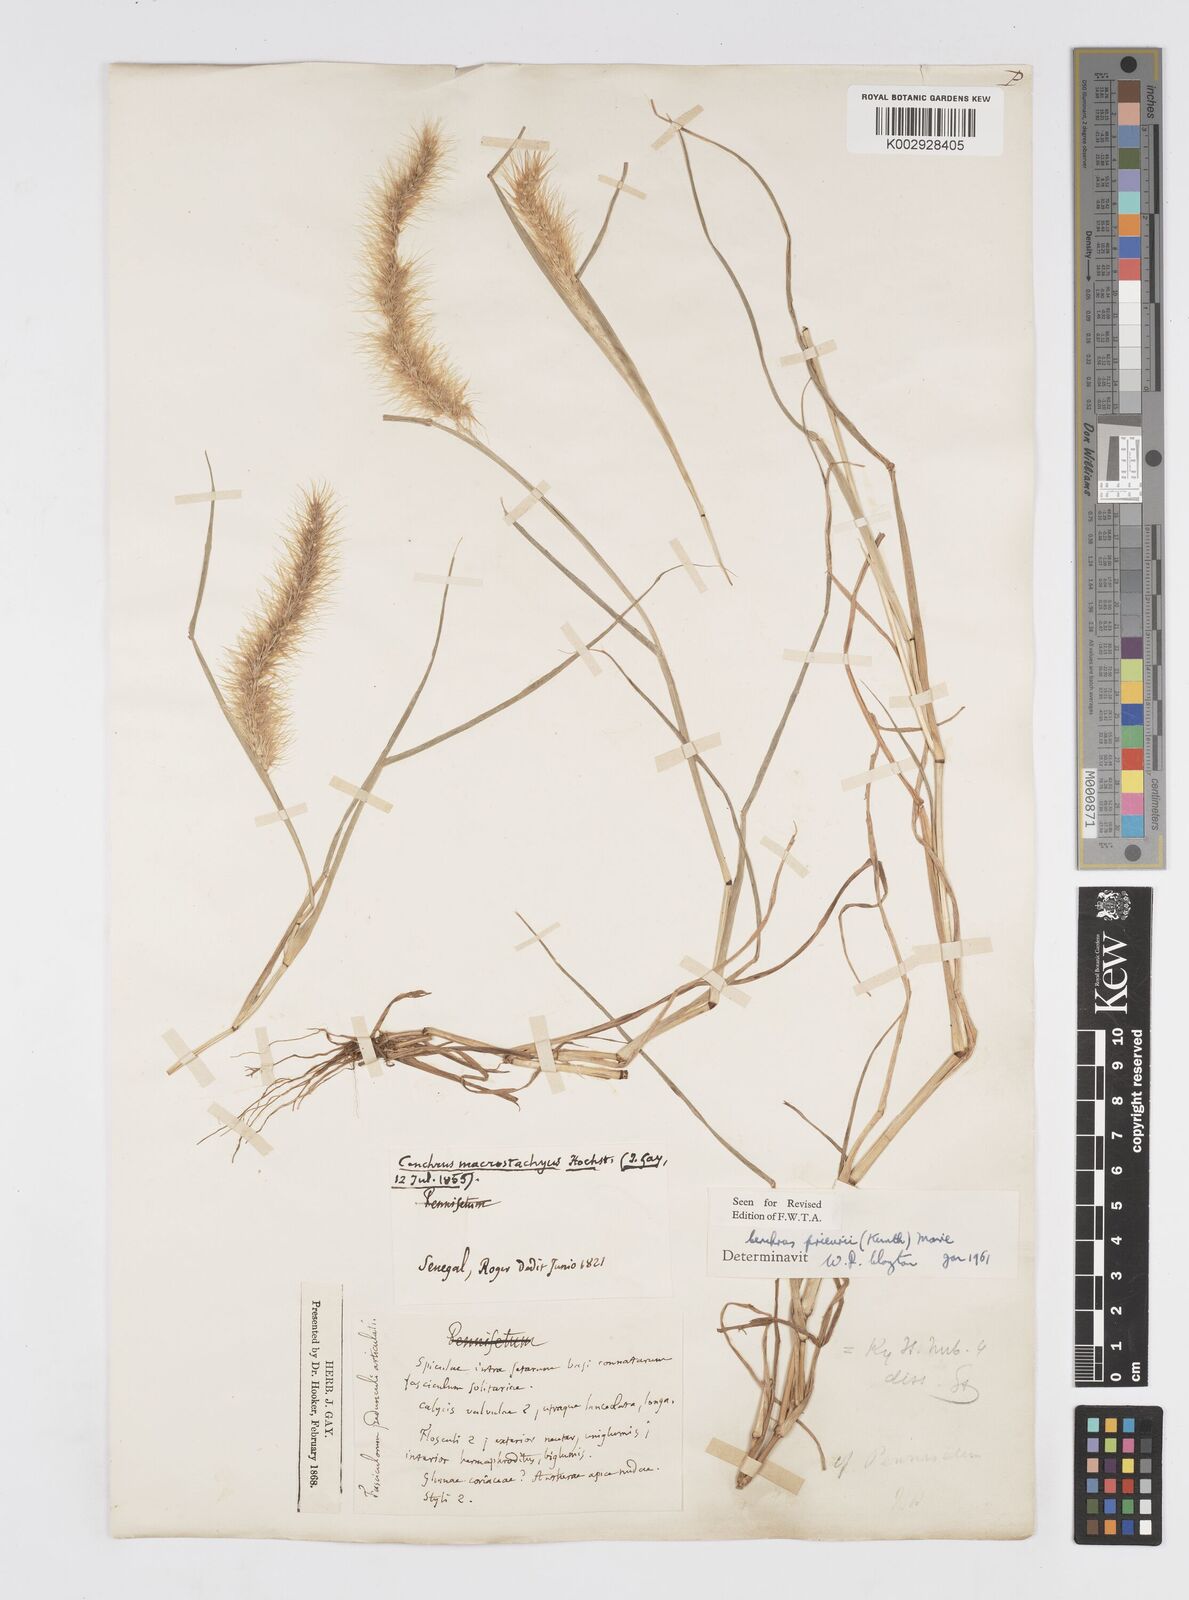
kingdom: Plantae
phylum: Tracheophyta
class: Liliopsida
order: Poales
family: Poaceae
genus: Cenchrus
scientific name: Cenchrus prieurii
